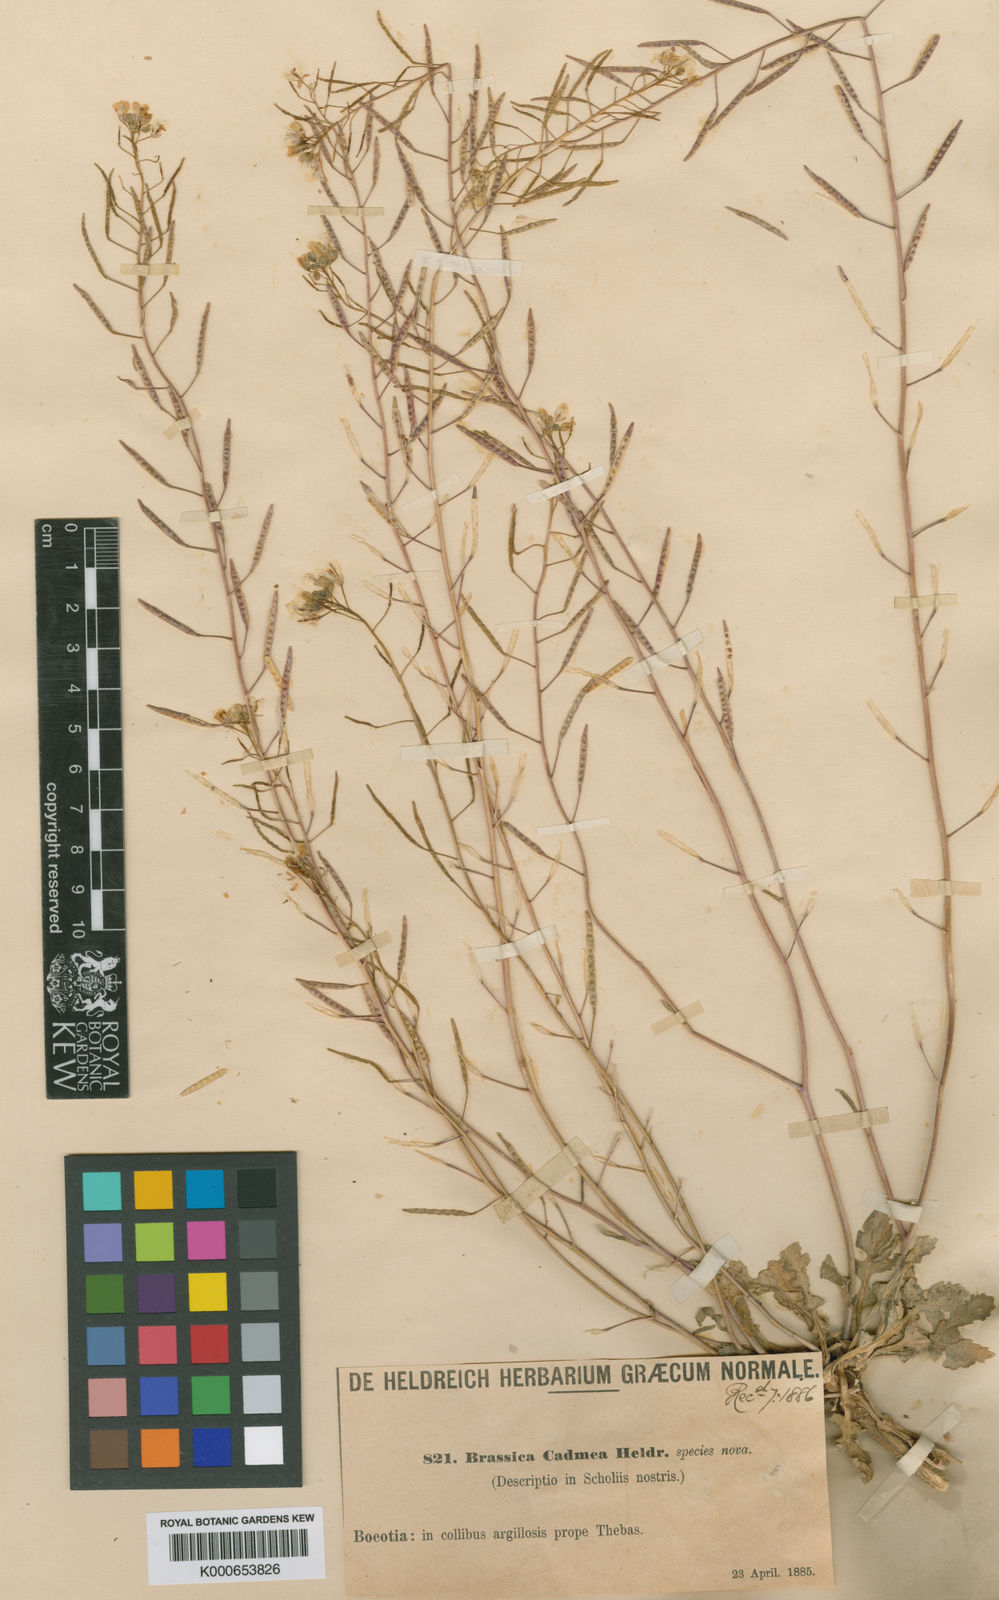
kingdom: Plantae
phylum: Tracheophyta
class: Magnoliopsida
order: Brassicales
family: Brassicaceae
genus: Brassica
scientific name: Brassica cadmea
